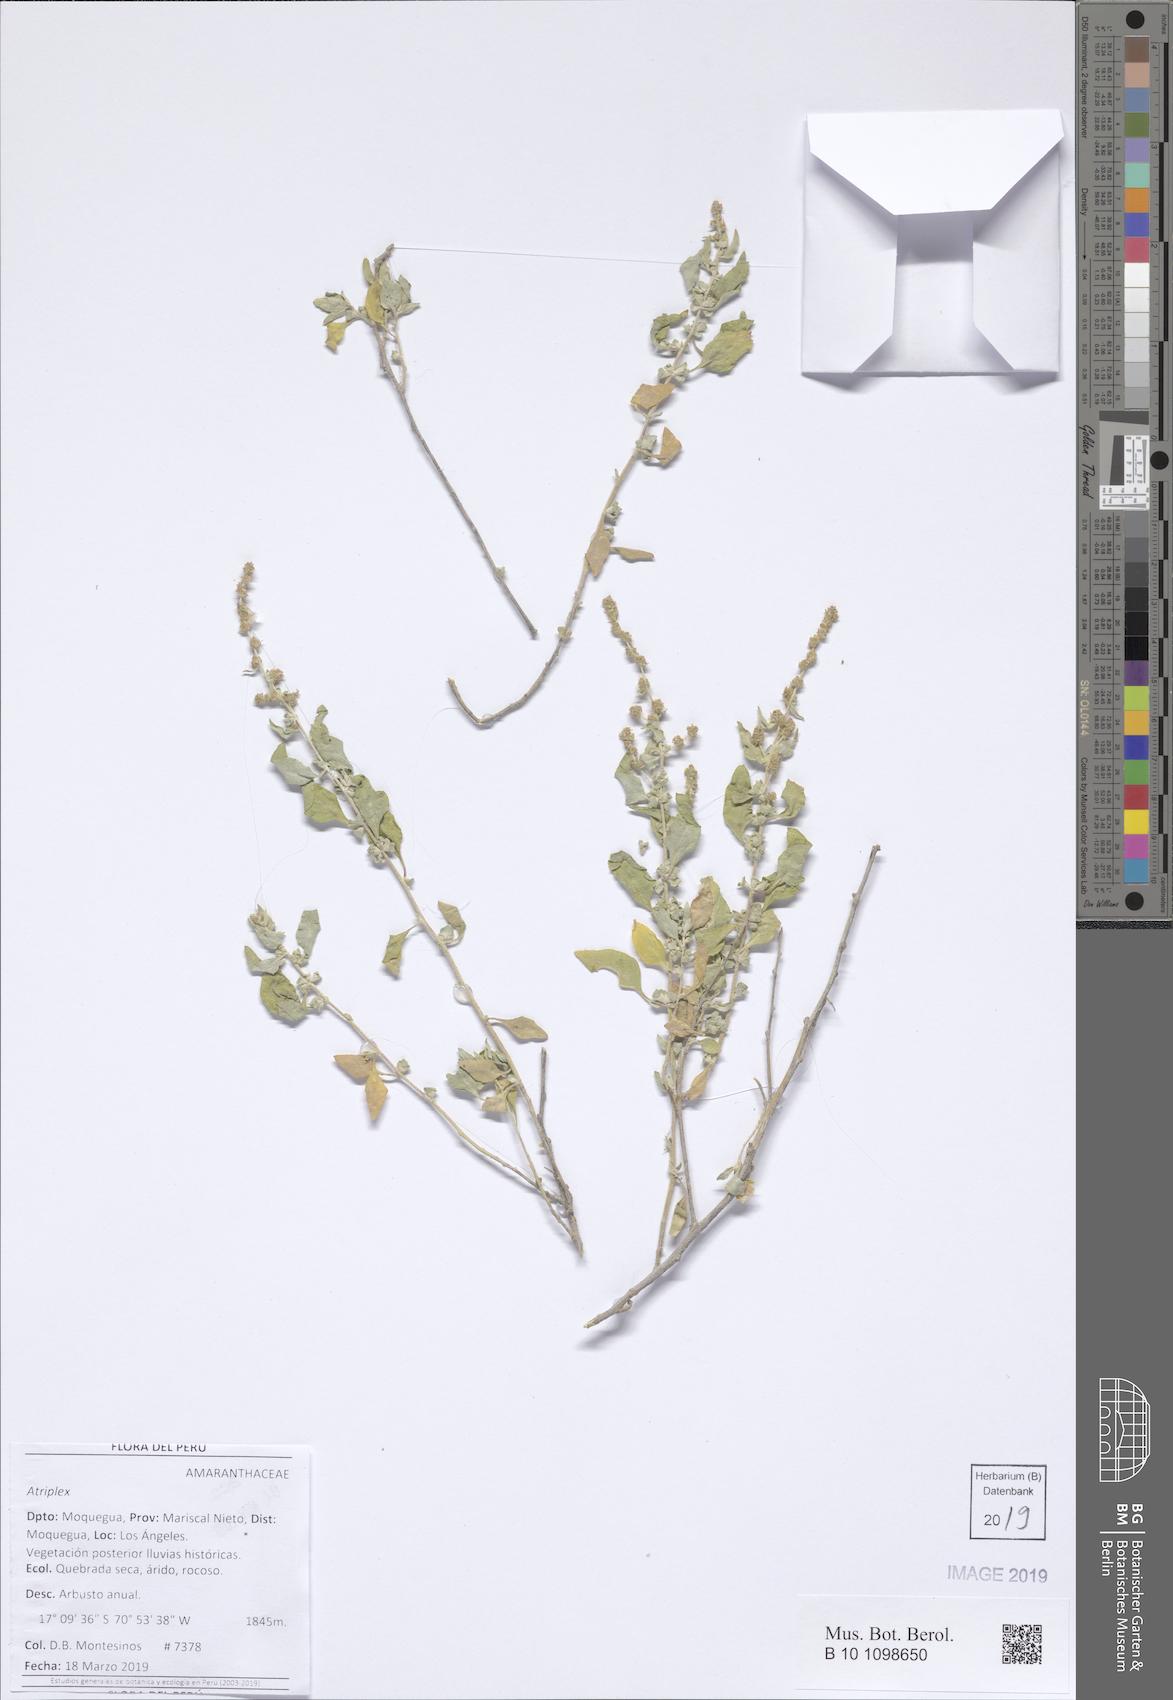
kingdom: Plantae
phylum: Tracheophyta
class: Magnoliopsida
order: Caryophyllales
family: Amaranthaceae
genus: Chenopodium
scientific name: Chenopodium petiolare
